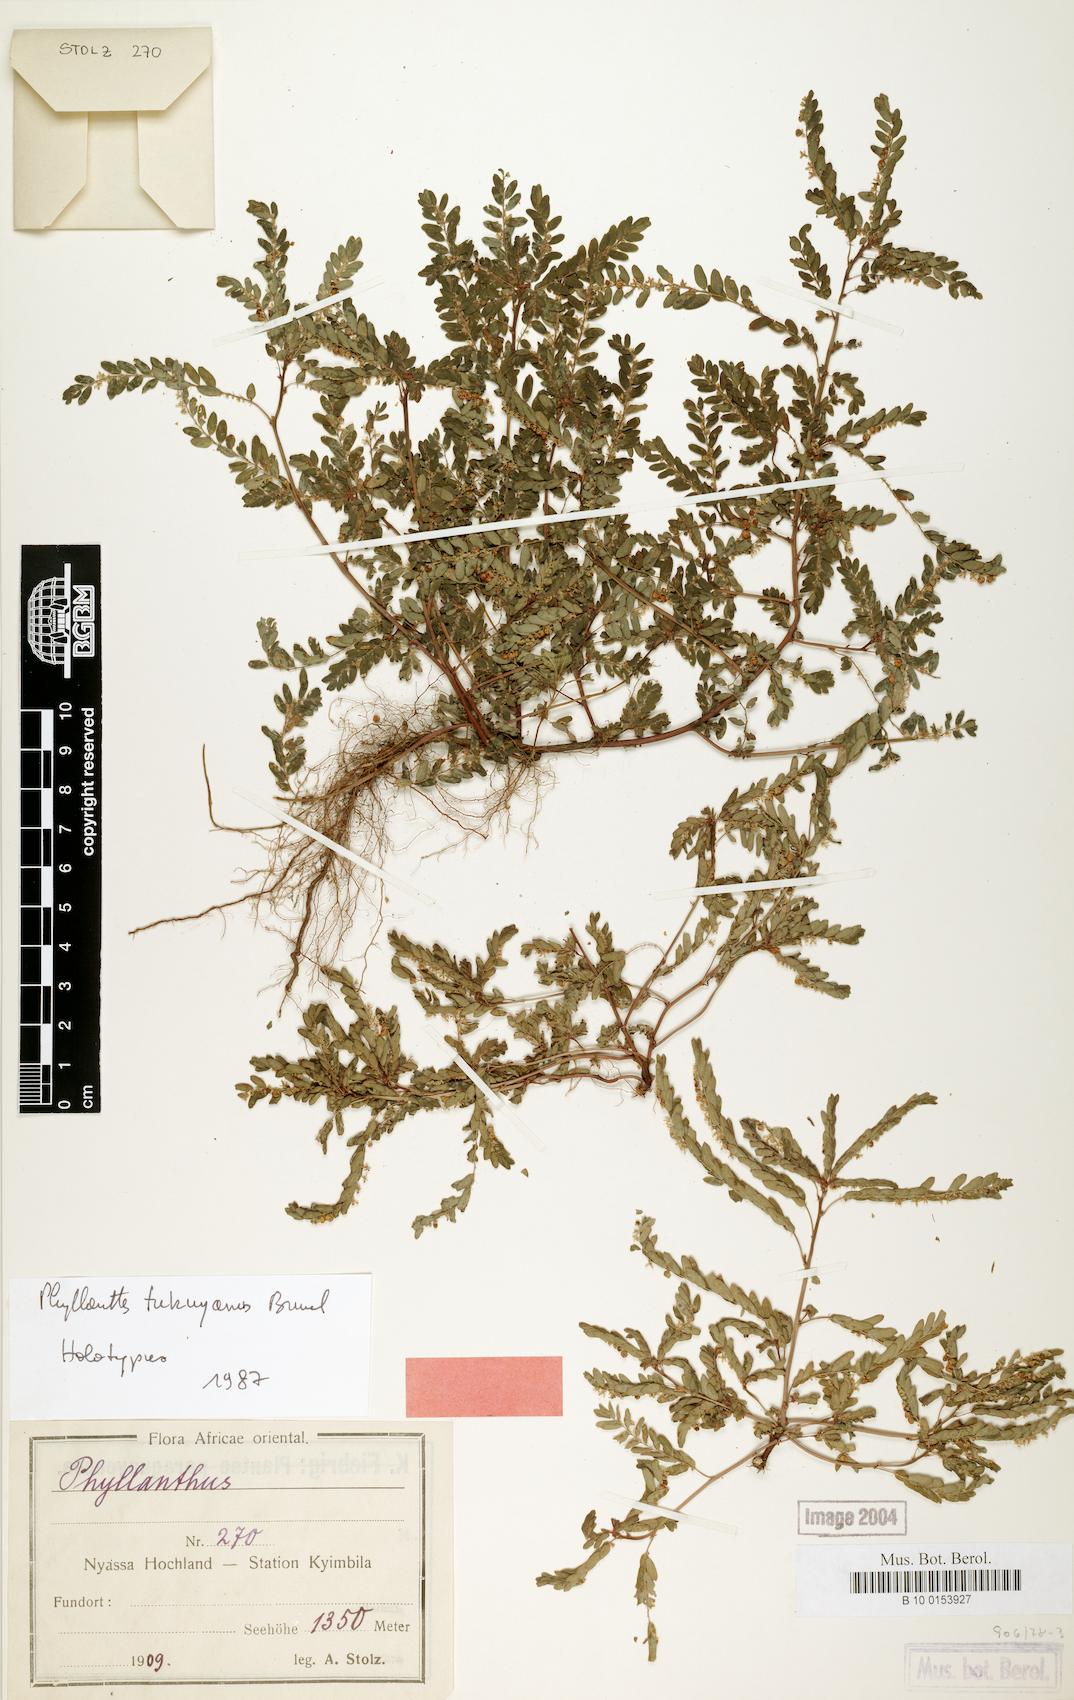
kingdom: Plantae
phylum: Tracheophyta
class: Magnoliopsida
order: Malpighiales
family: Phyllanthaceae
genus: Phyllanthus
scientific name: Phyllanthus tukuyuanus
